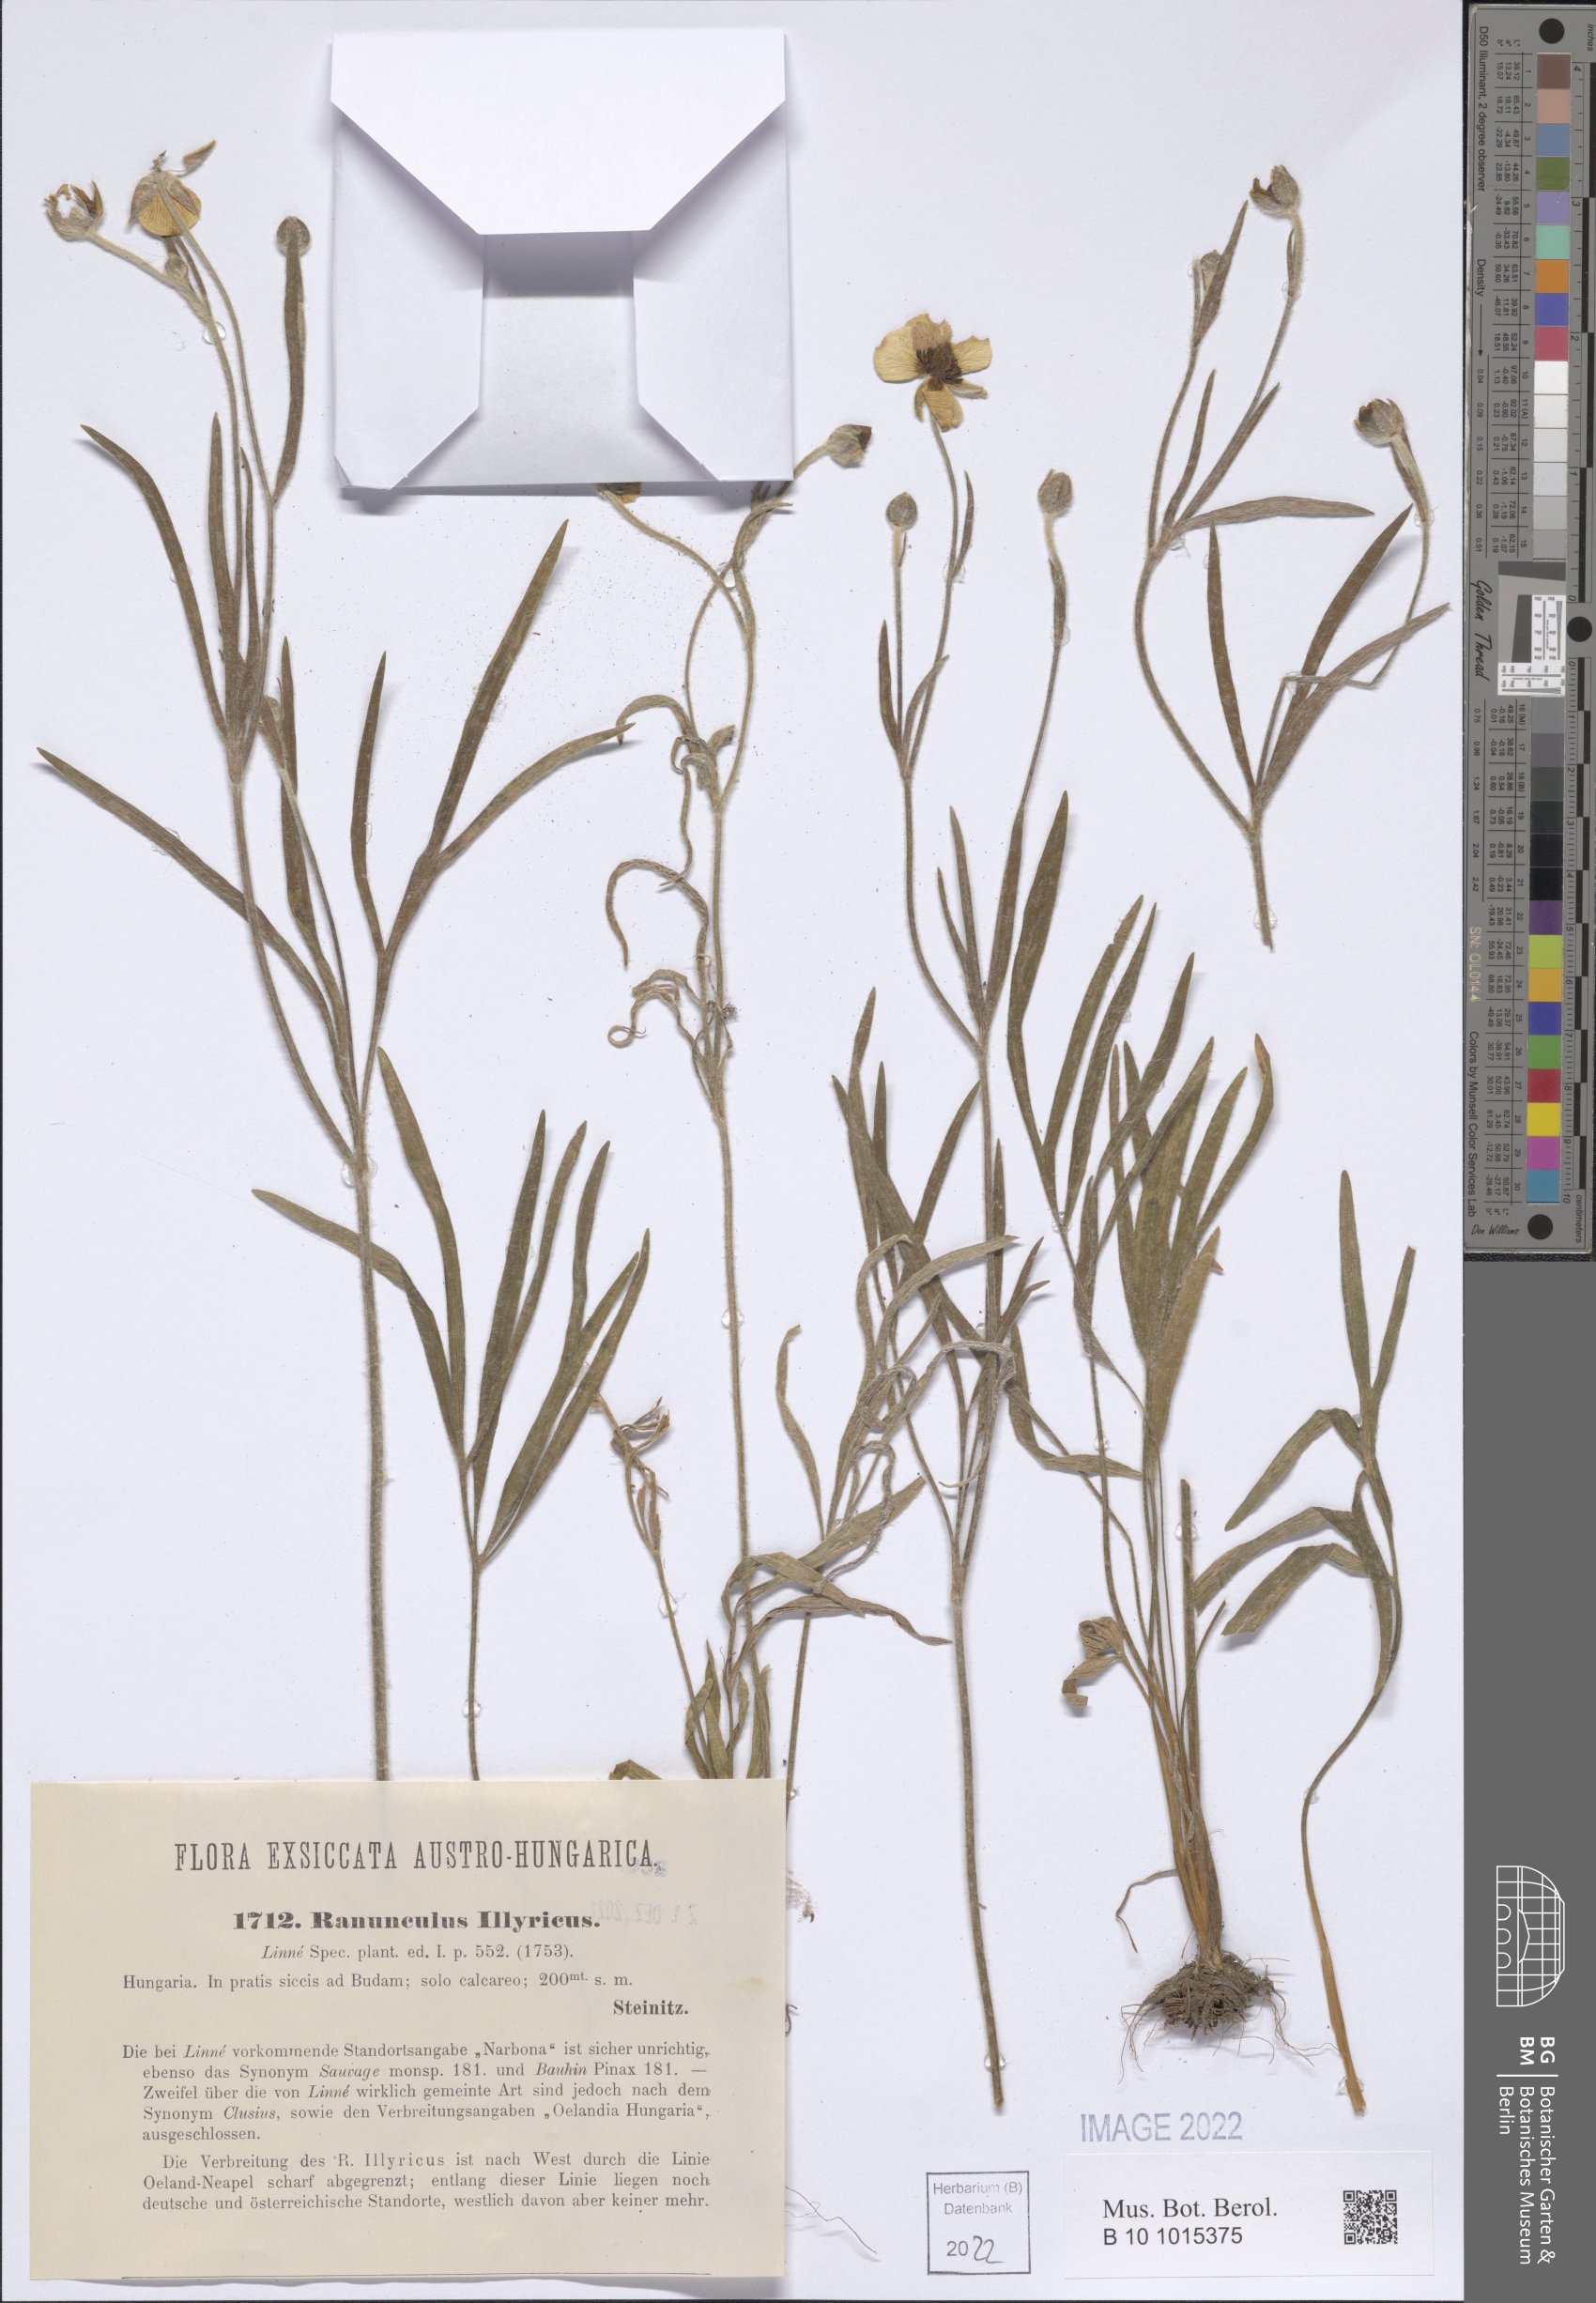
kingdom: Plantae
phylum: Tracheophyta
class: Magnoliopsida
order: Ranunculales
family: Ranunculaceae
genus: Ranunculus
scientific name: Ranunculus illyricus
